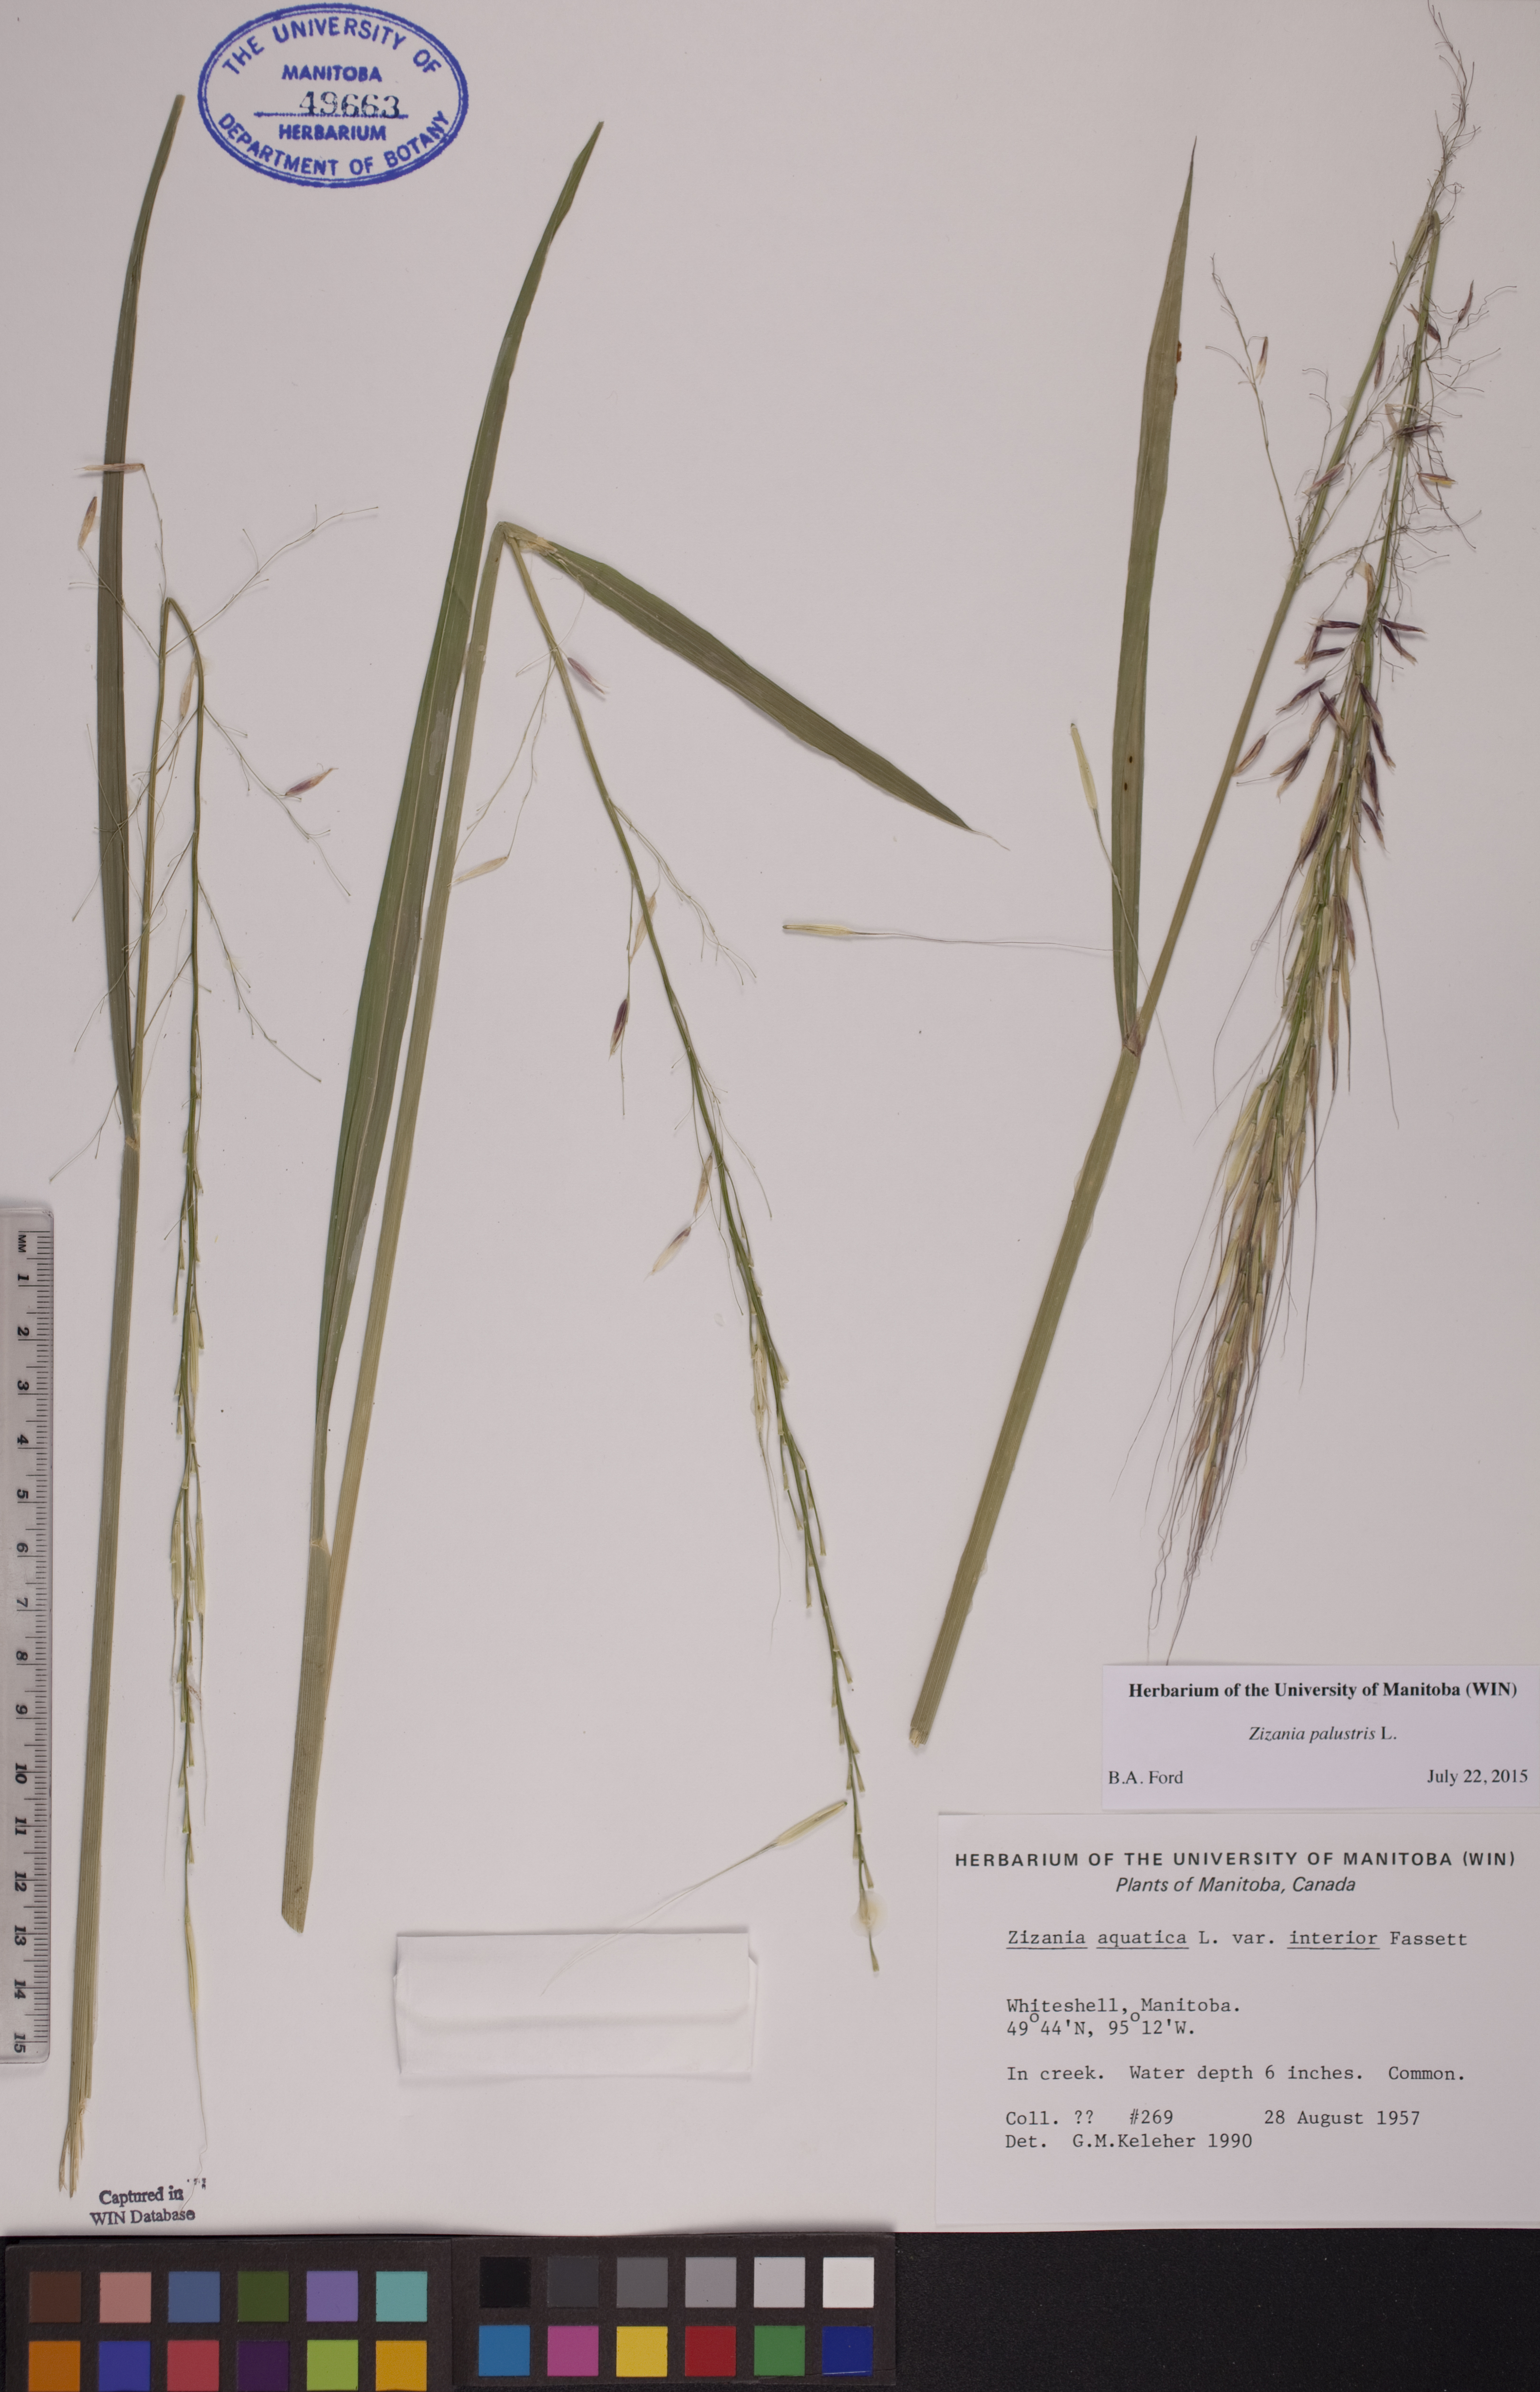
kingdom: Plantae
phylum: Tracheophyta
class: Liliopsida
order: Poales
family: Poaceae
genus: Zizania
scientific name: Zizania palustris
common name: Northern wild rice
